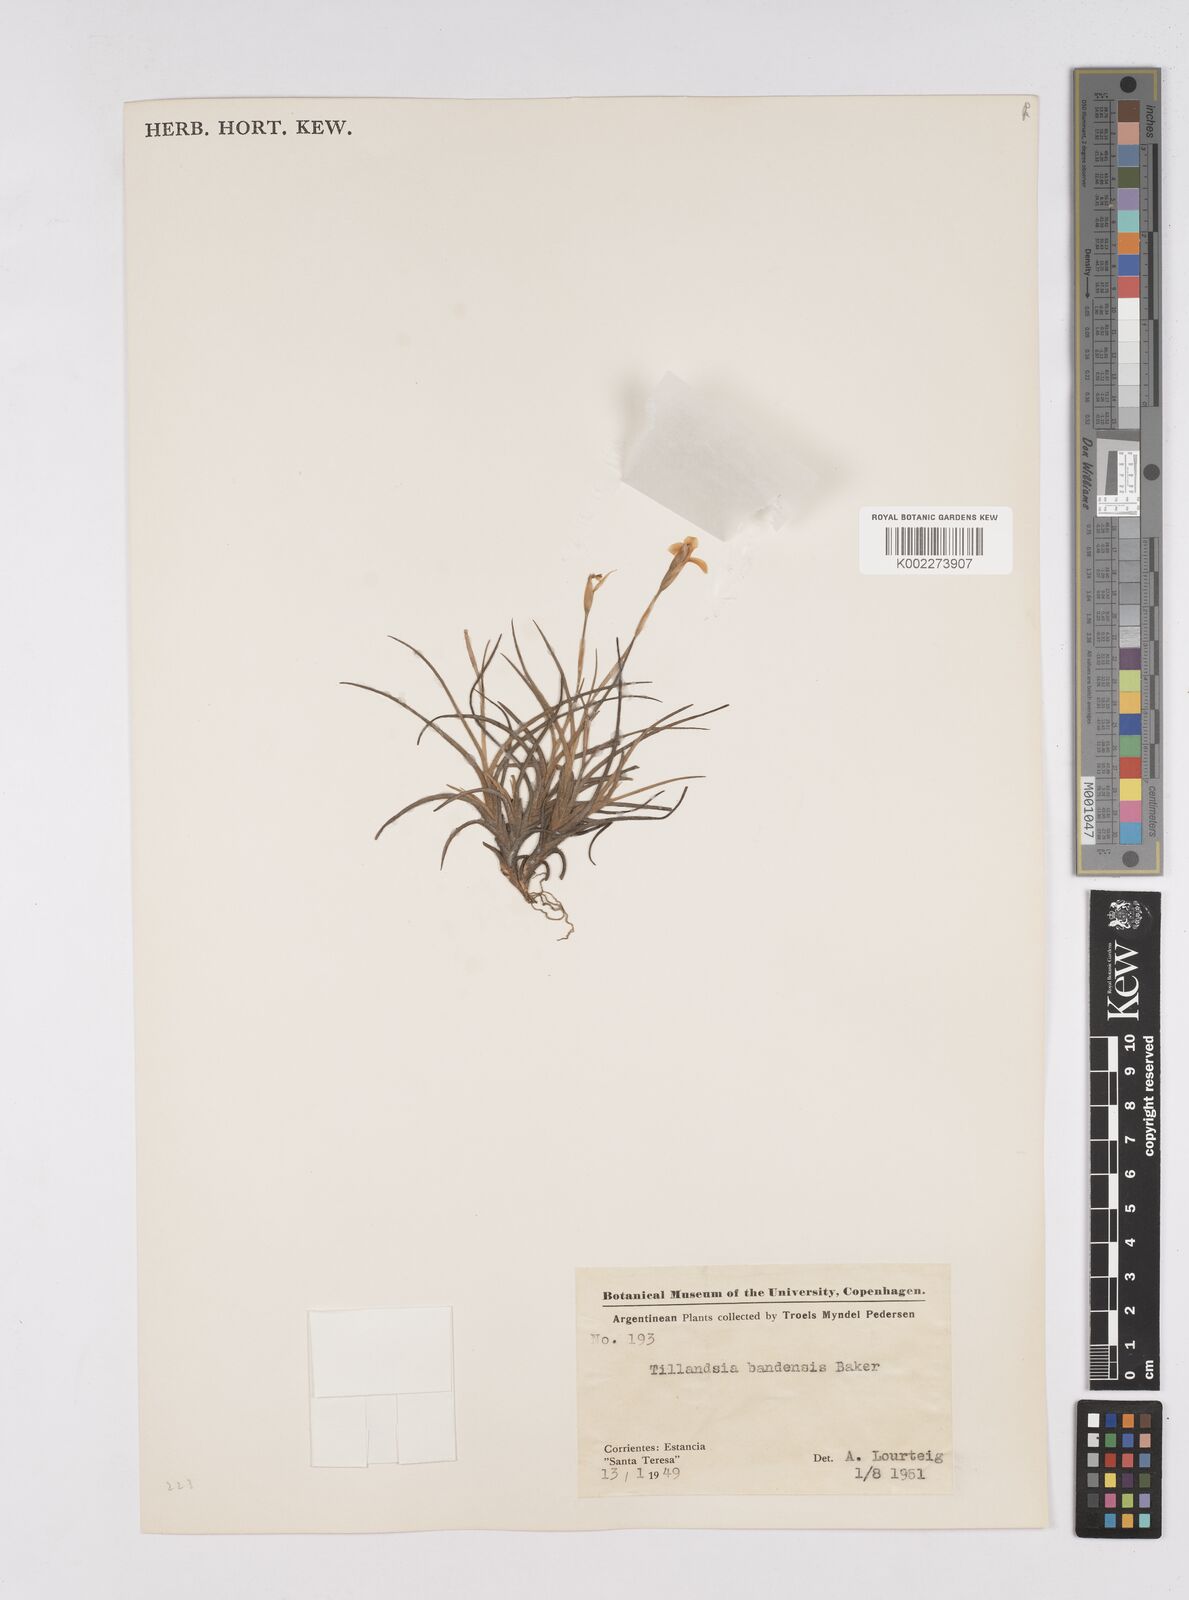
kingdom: Plantae
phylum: Tracheophyta
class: Liliopsida
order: Poales
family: Bromeliaceae
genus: Tillandsia
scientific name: Tillandsia bandensis
